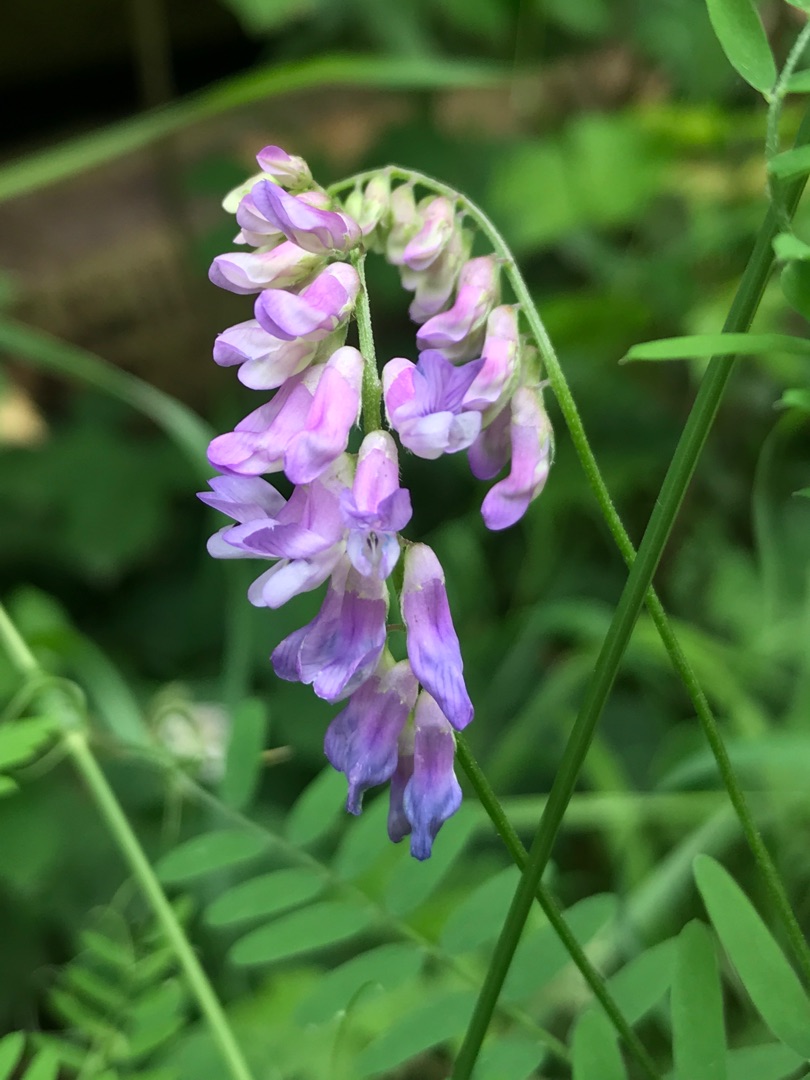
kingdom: Plantae
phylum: Tracheophyta
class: Magnoliopsida
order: Fabales
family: Fabaceae
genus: Vicia
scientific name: Vicia cracca
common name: Muse-vikke
